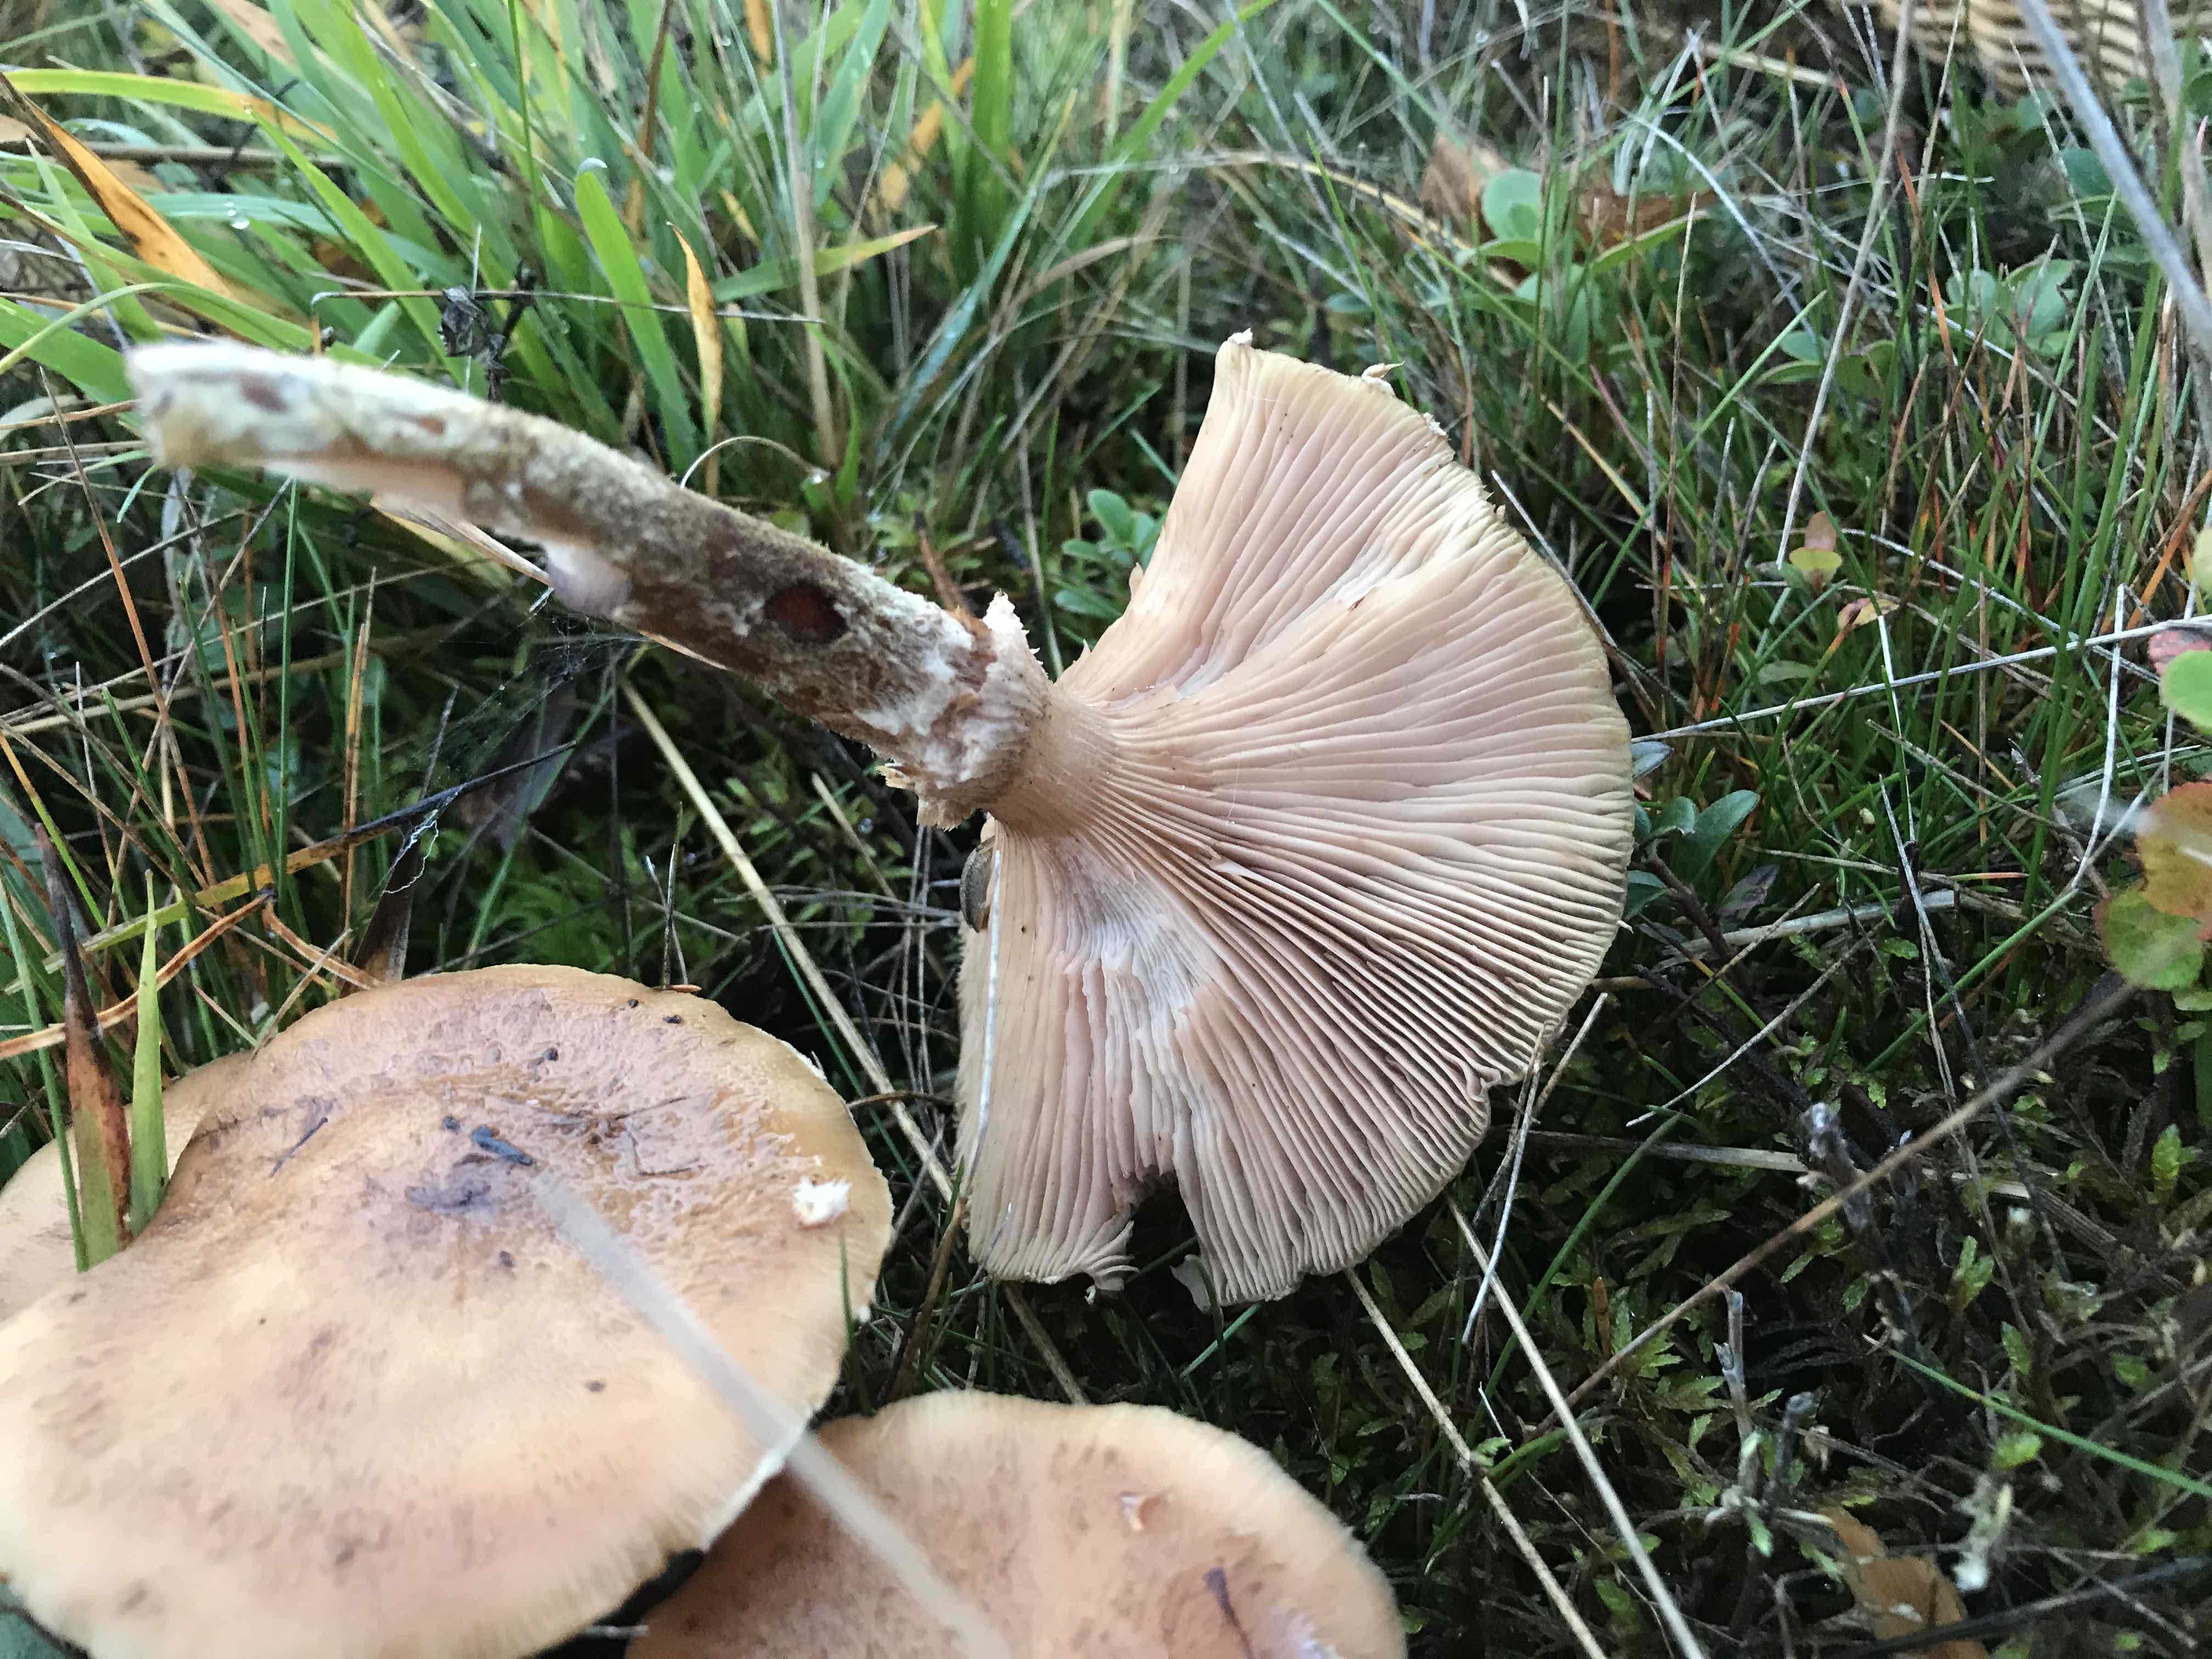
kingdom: Fungi
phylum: Basidiomycota
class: Agaricomycetes
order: Agaricales
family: Physalacriaceae
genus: Armillaria
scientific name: Armillaria ostoyae
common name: mørk honningsvamp
